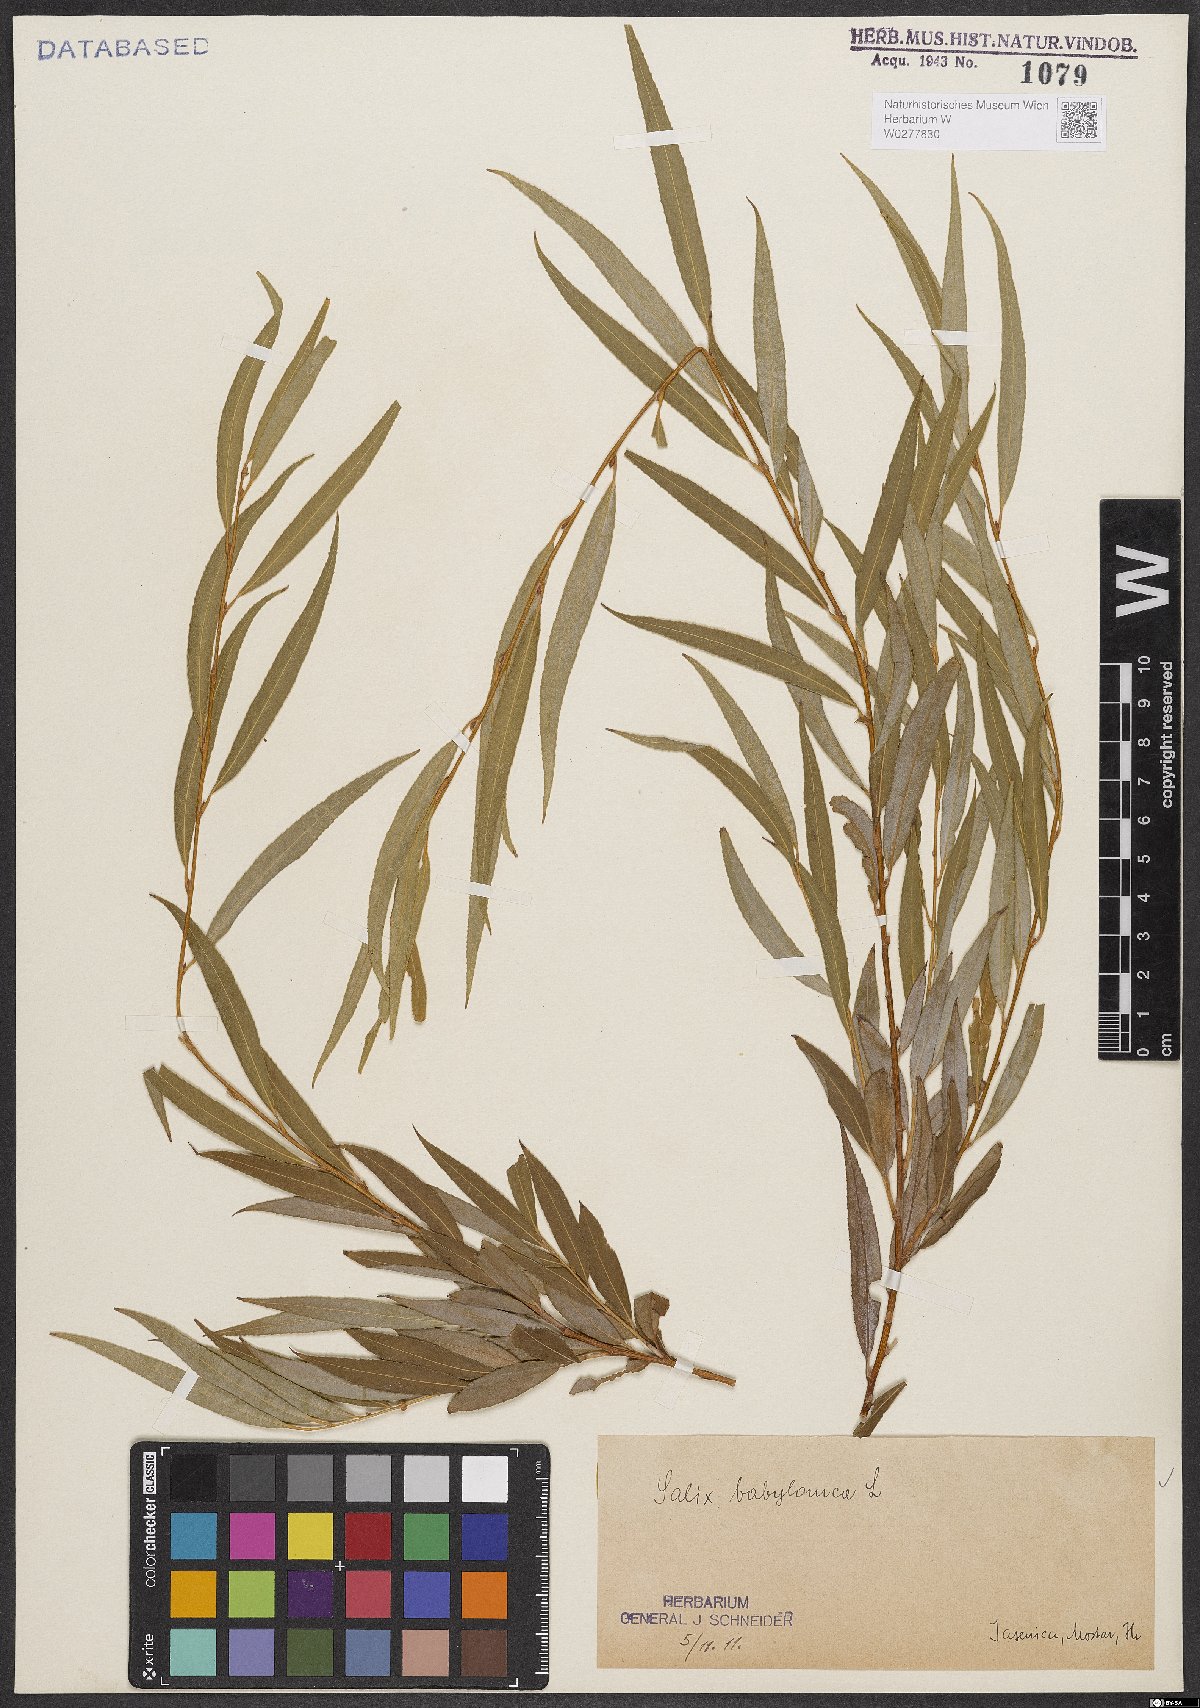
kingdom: Plantae
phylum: Tracheophyta
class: Magnoliopsida
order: Malpighiales
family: Salicaceae
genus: Salix
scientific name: Salix babylonica
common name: Weeping willow
